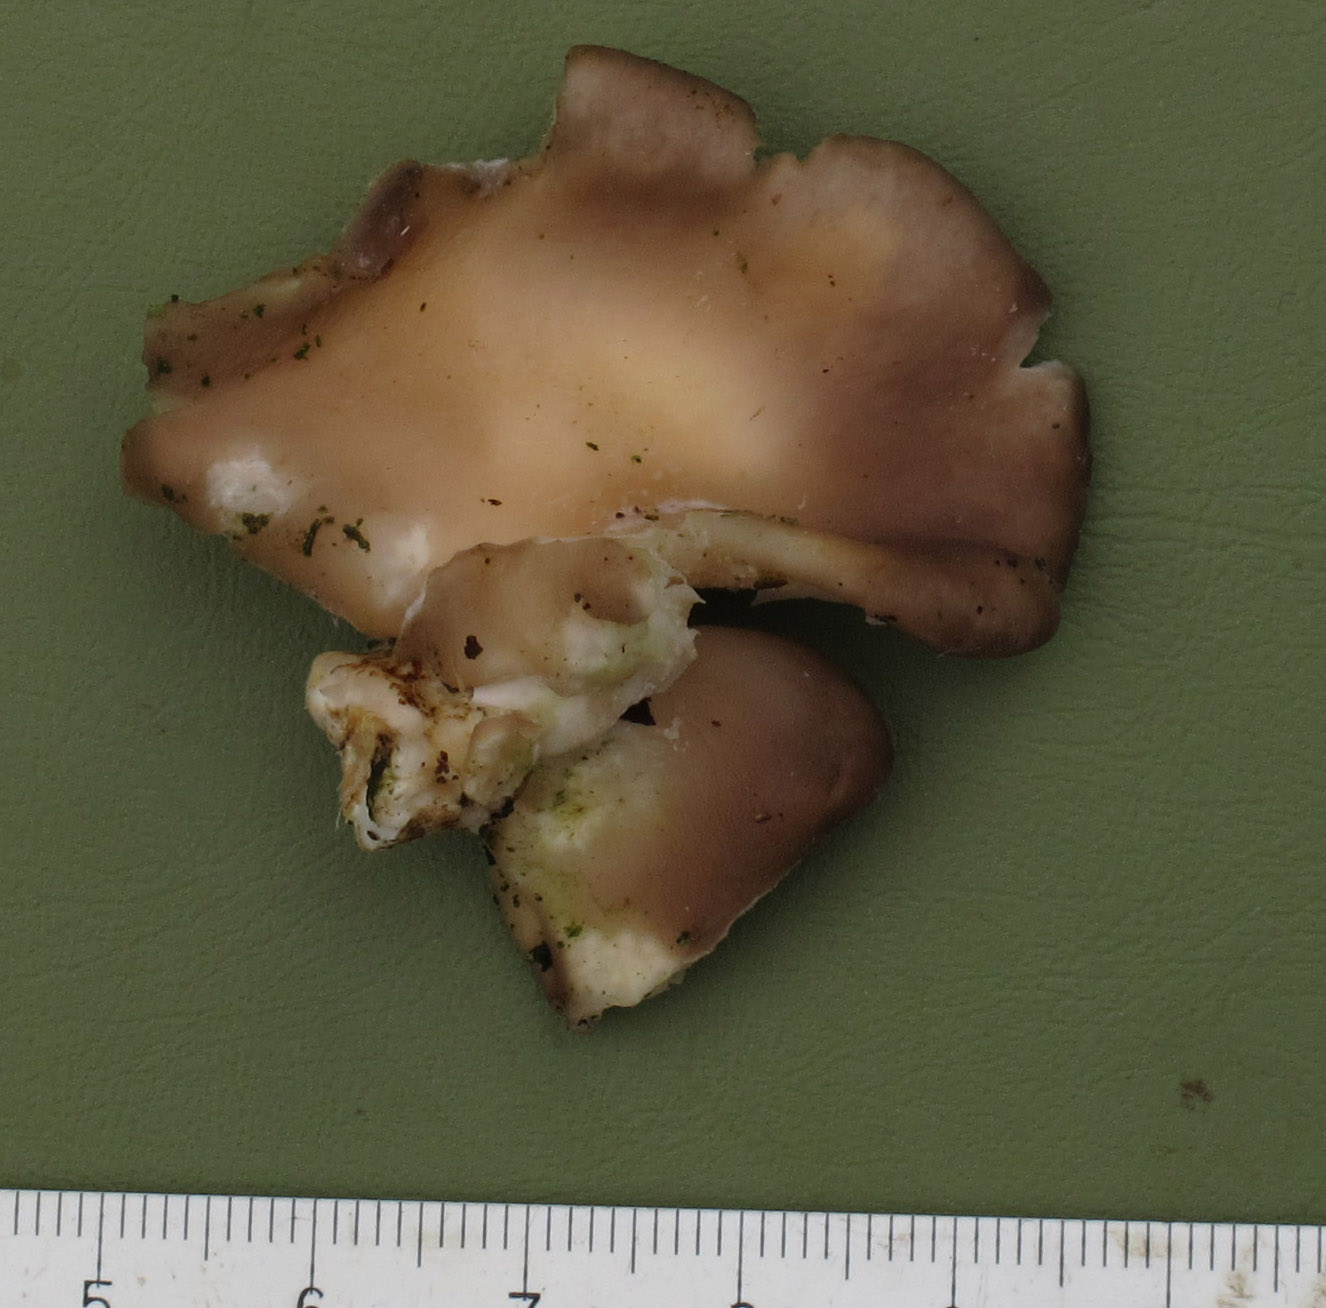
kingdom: Fungi
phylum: Basidiomycota
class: Agaricomycetes
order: Agaricales
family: Pleurotaceae
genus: Pleurotus
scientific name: Pleurotus ostreatus
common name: Oyster mushroom
